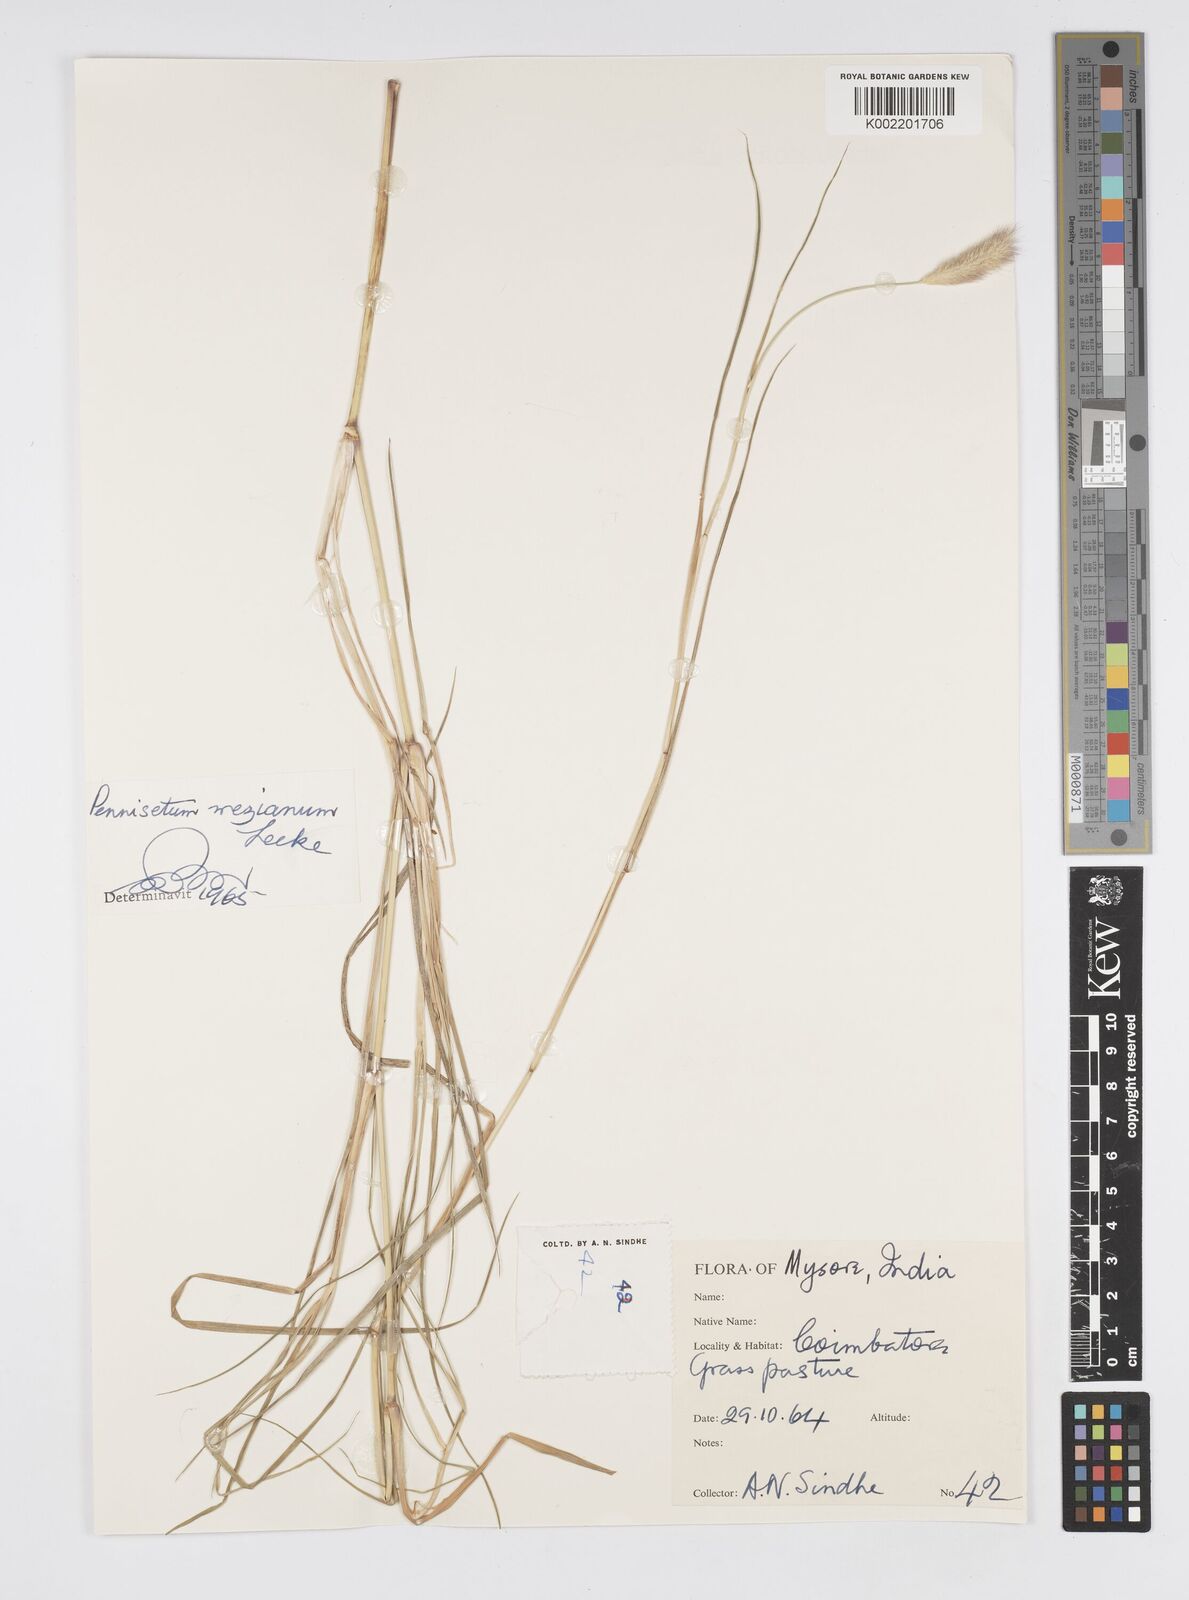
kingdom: Plantae
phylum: Tracheophyta
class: Liliopsida
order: Poales
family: Poaceae
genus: Cenchrus
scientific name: Cenchrus mezianus
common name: Bamboo grass
